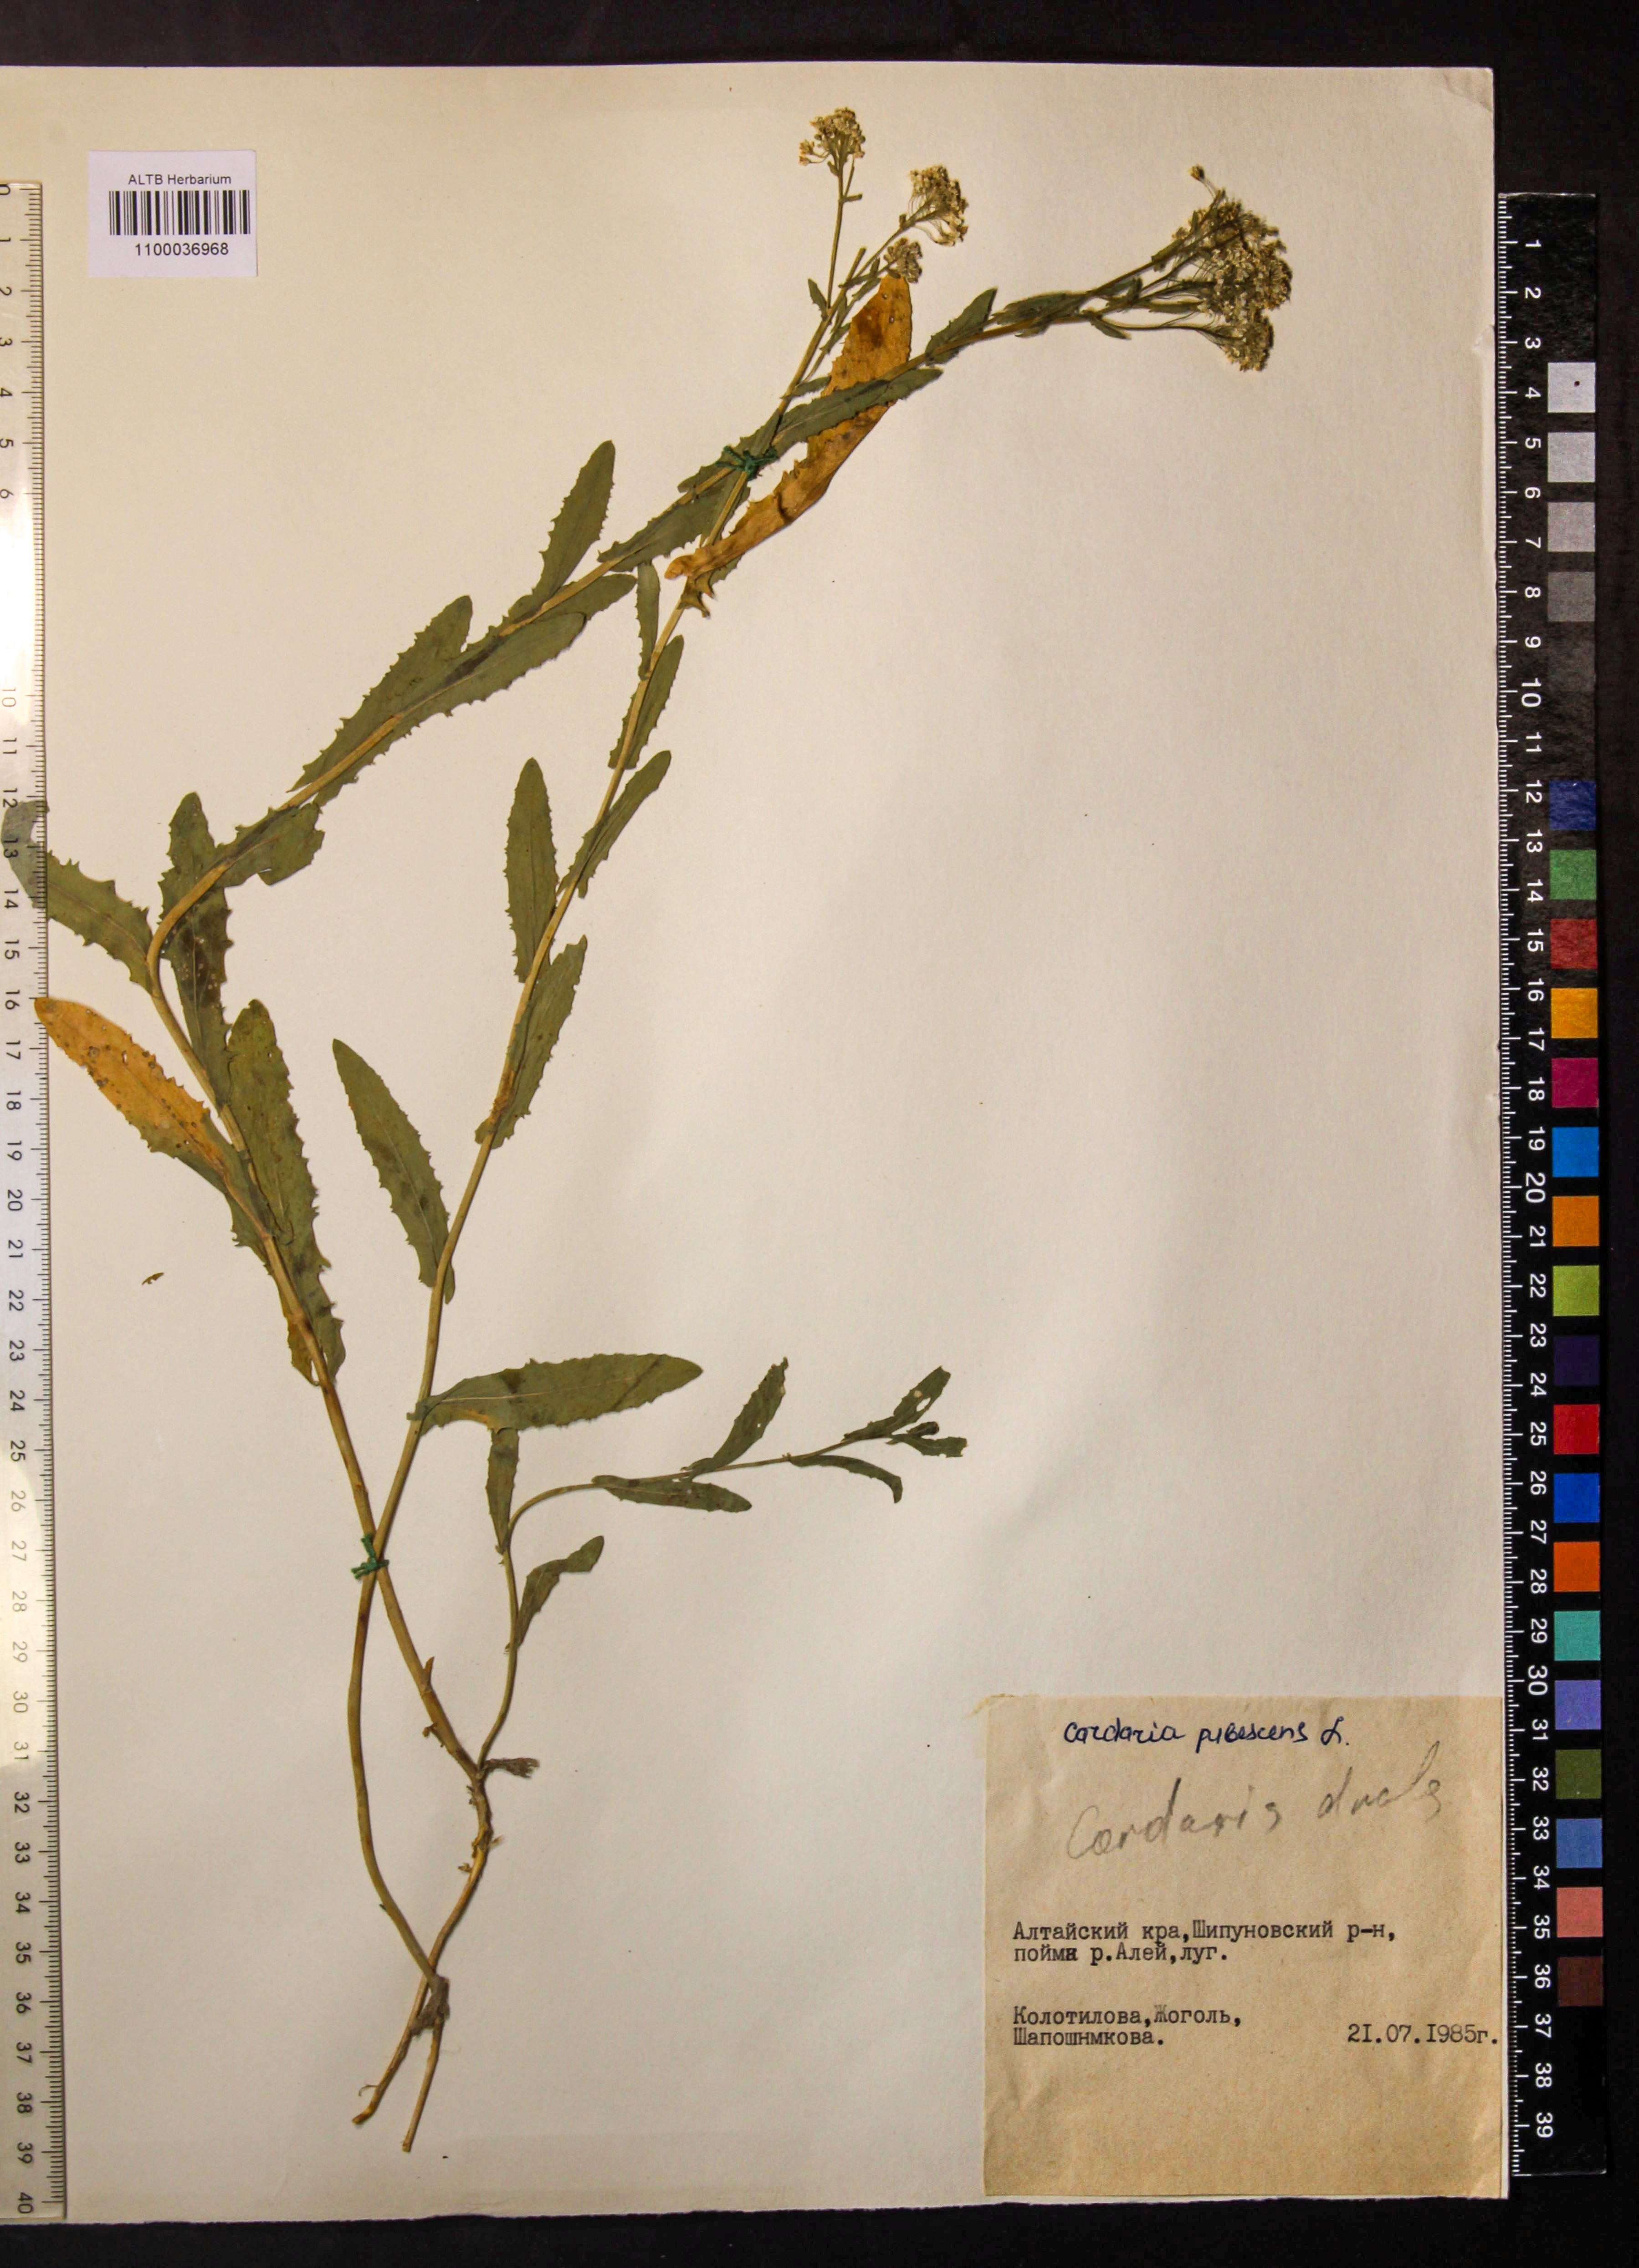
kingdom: Plantae
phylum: Tracheophyta
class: Magnoliopsida
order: Brassicales
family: Brassicaceae
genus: Lepidium
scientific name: Lepidium appelianum
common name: Hairy whitetop
